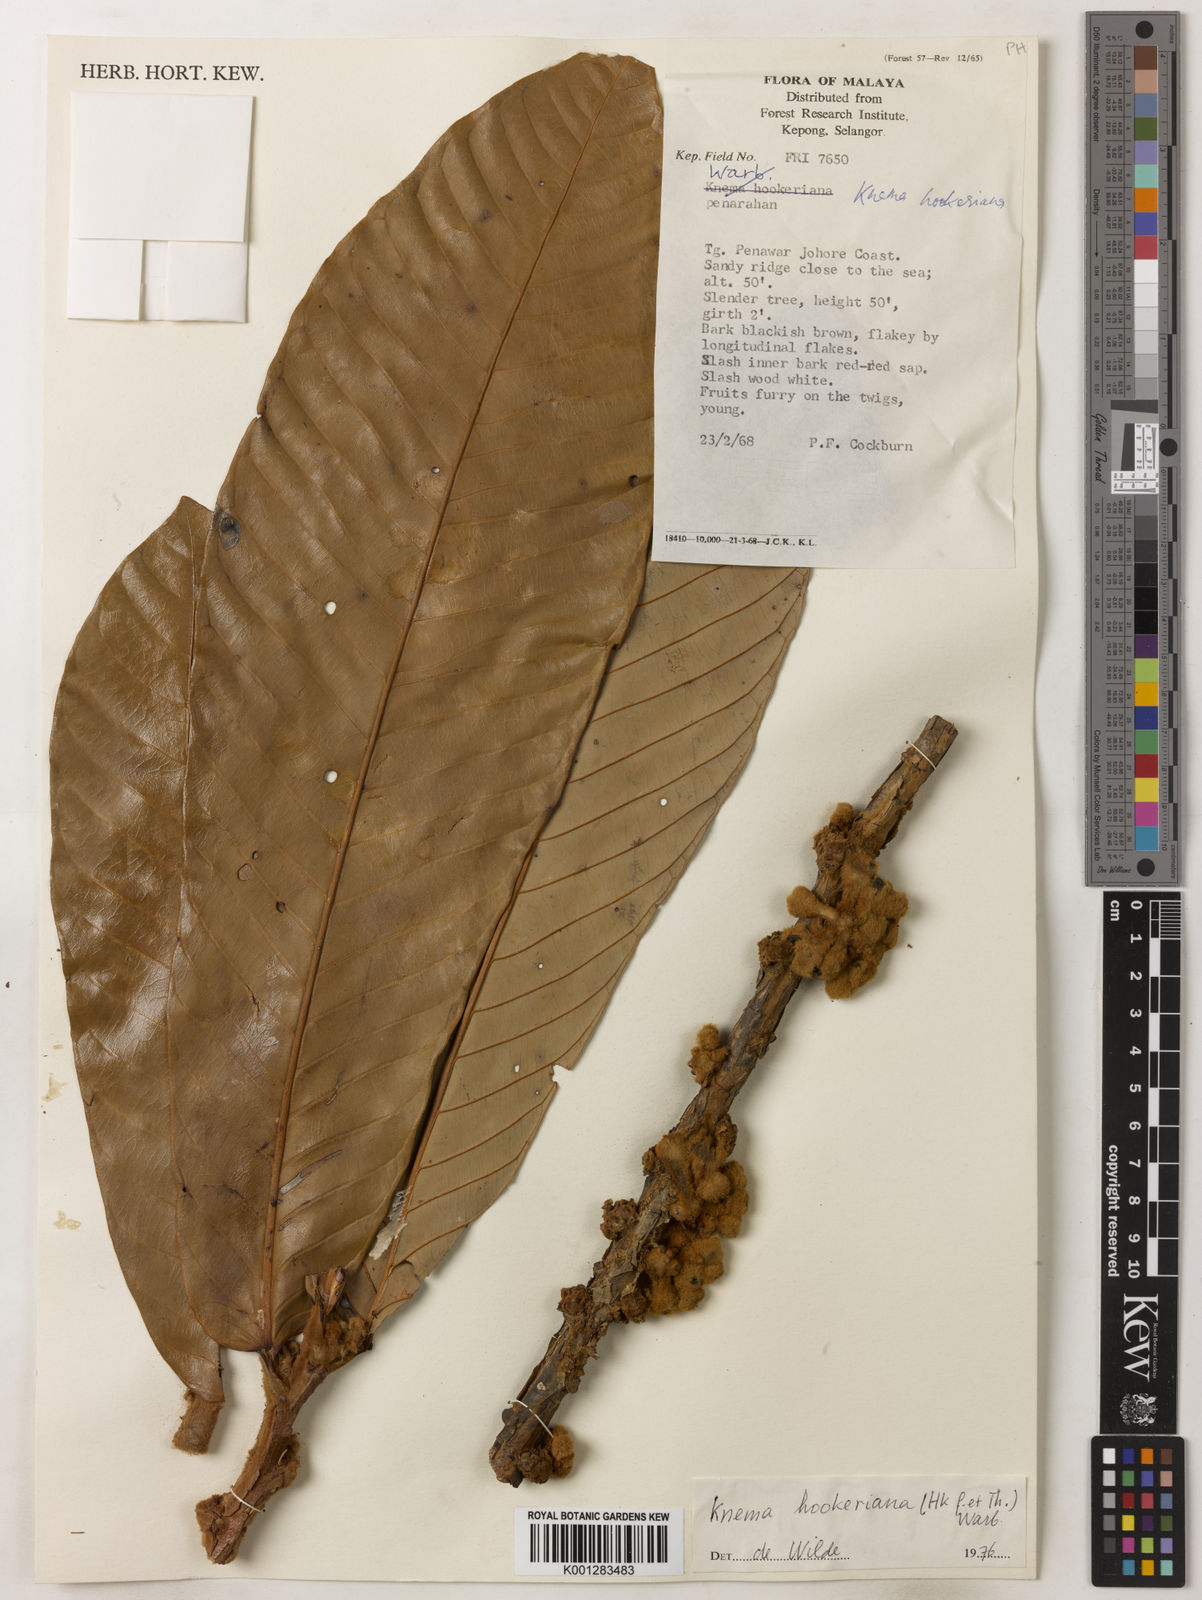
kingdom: Plantae
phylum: Tracheophyta
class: Magnoliopsida
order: Magnoliales
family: Myristicaceae
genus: Knema
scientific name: Knema hookeriana
